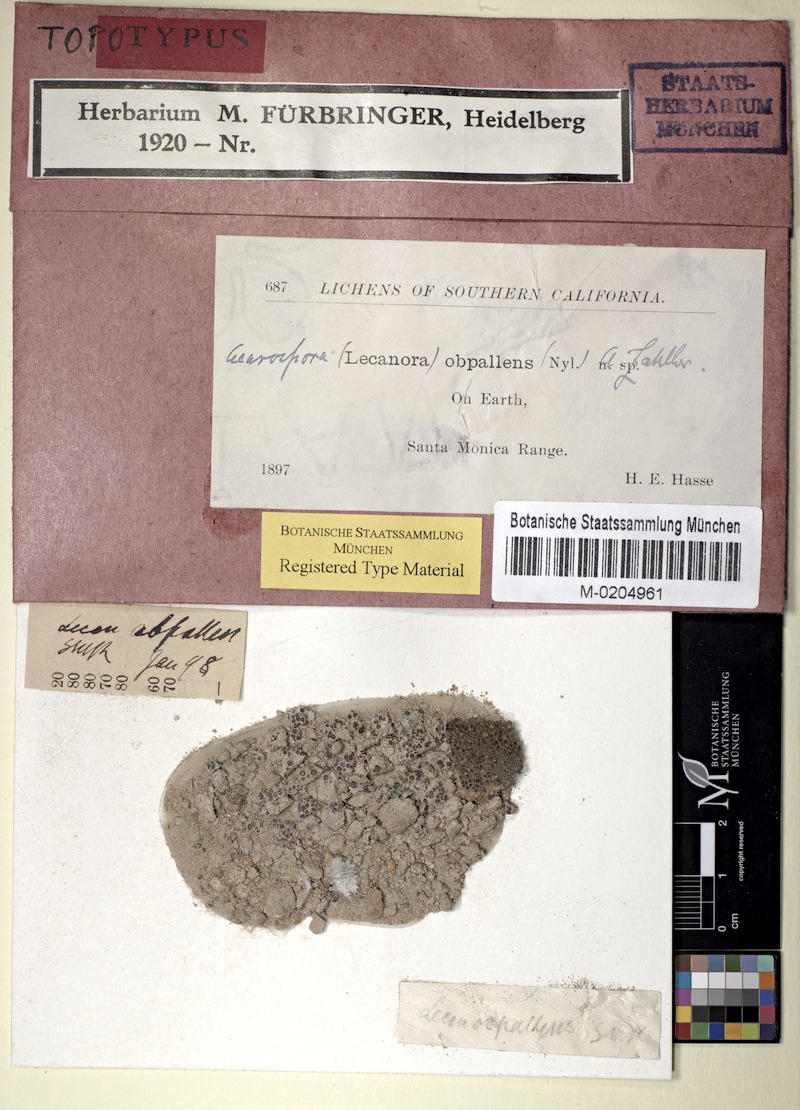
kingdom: Fungi
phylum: Ascomycota
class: Lecanoromycetes
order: Acarosporales
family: Acarosporaceae
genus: Acarospora
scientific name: Acarospora obpallens
